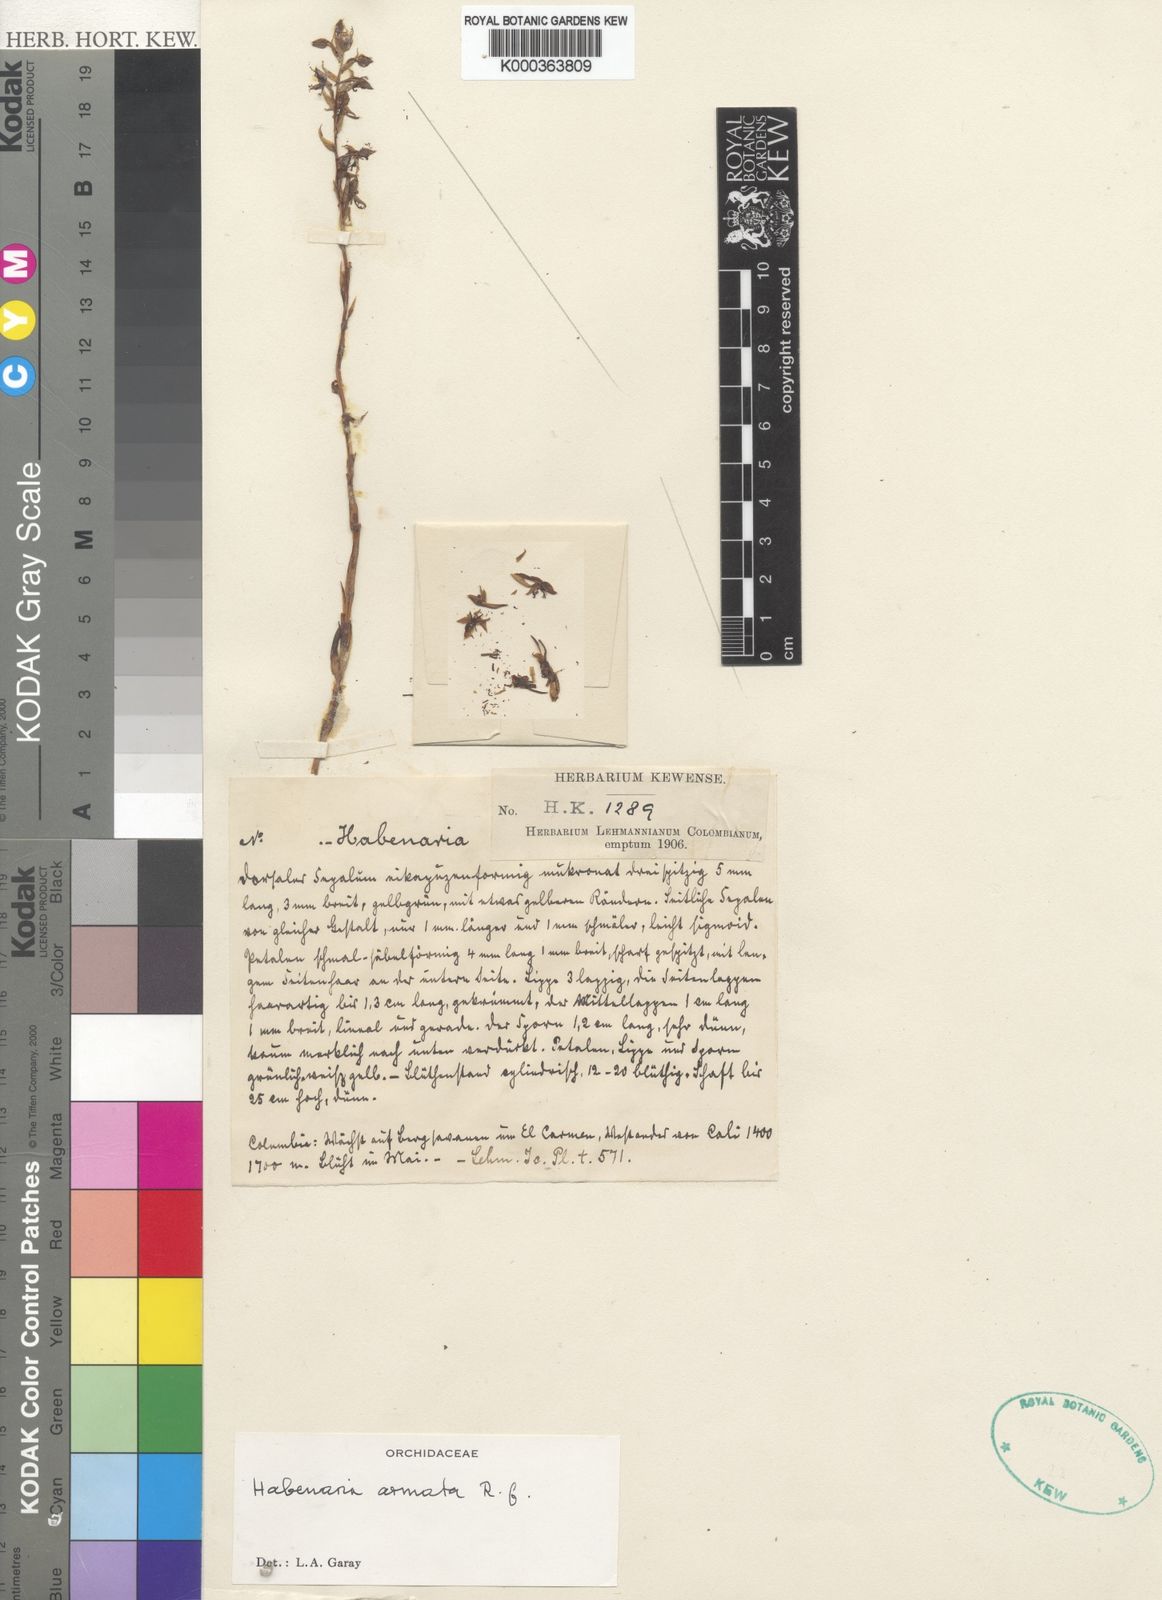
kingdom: Plantae
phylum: Tracheophyta
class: Liliopsida
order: Asparagales
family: Orchidaceae
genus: Habenaria
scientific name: Habenaria armata
